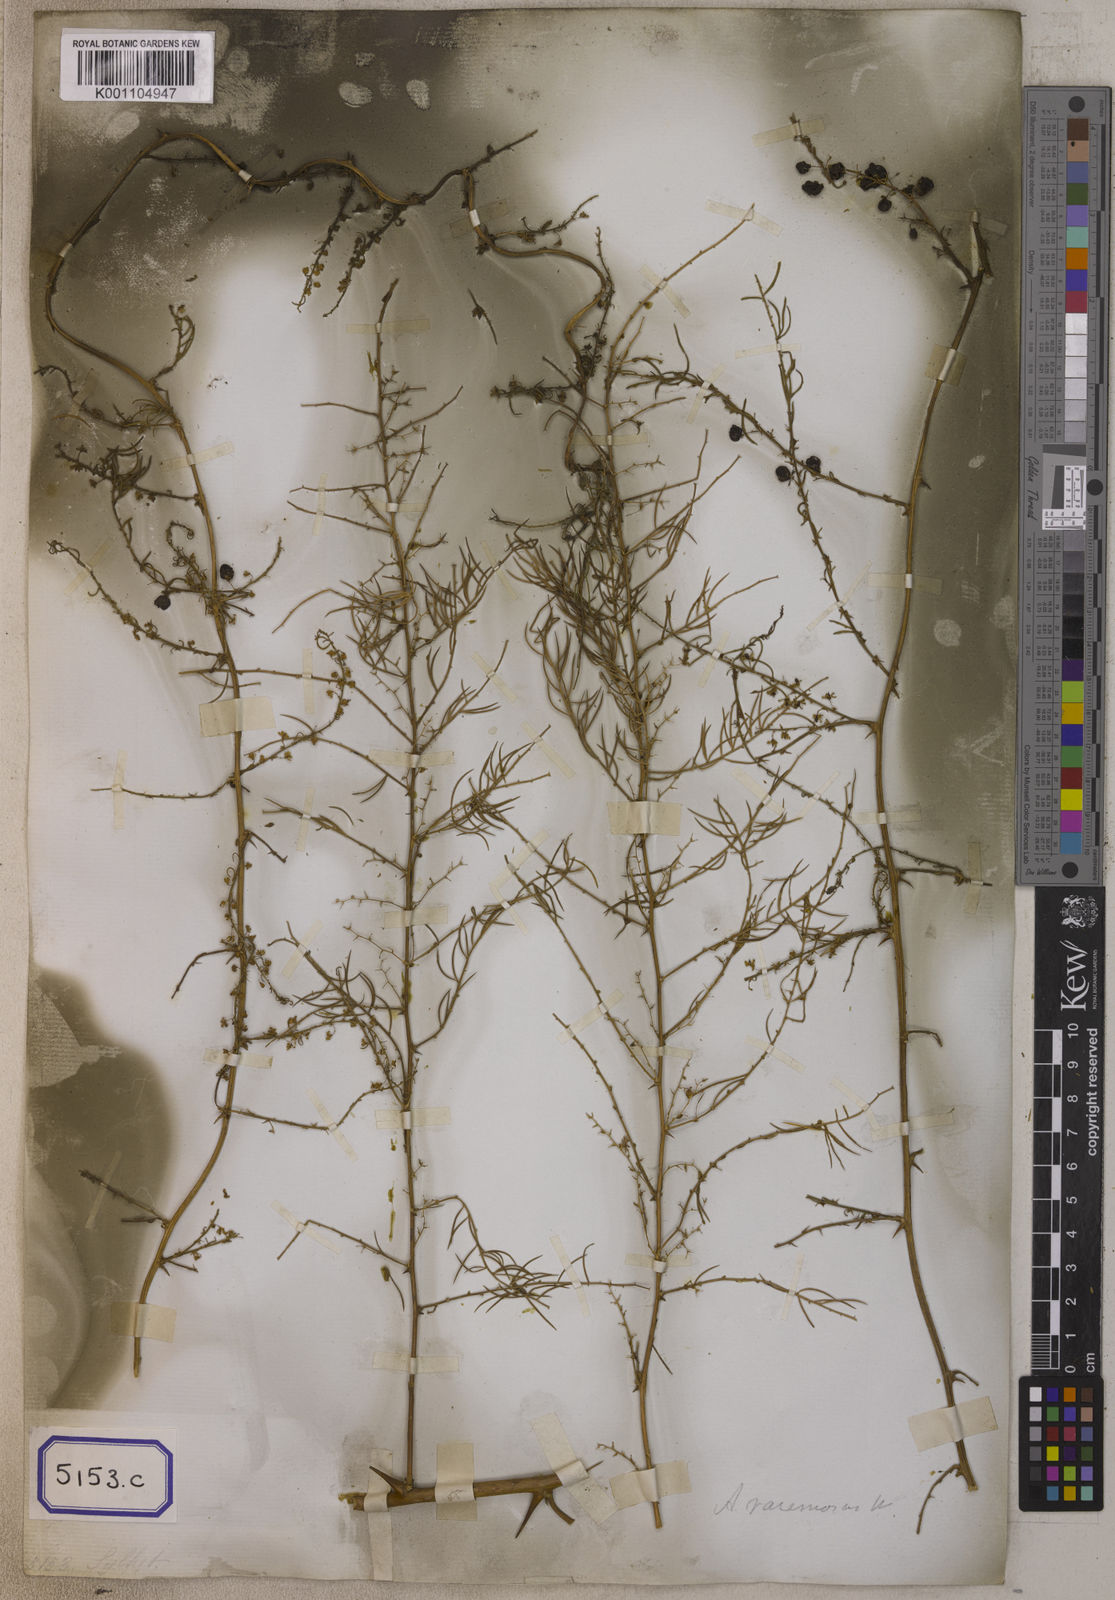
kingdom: Plantae
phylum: Tracheophyta
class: Liliopsida
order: Asparagales
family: Asparagaceae
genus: Asparagus
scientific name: Asparagus racemosus
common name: Asparagus-fern
